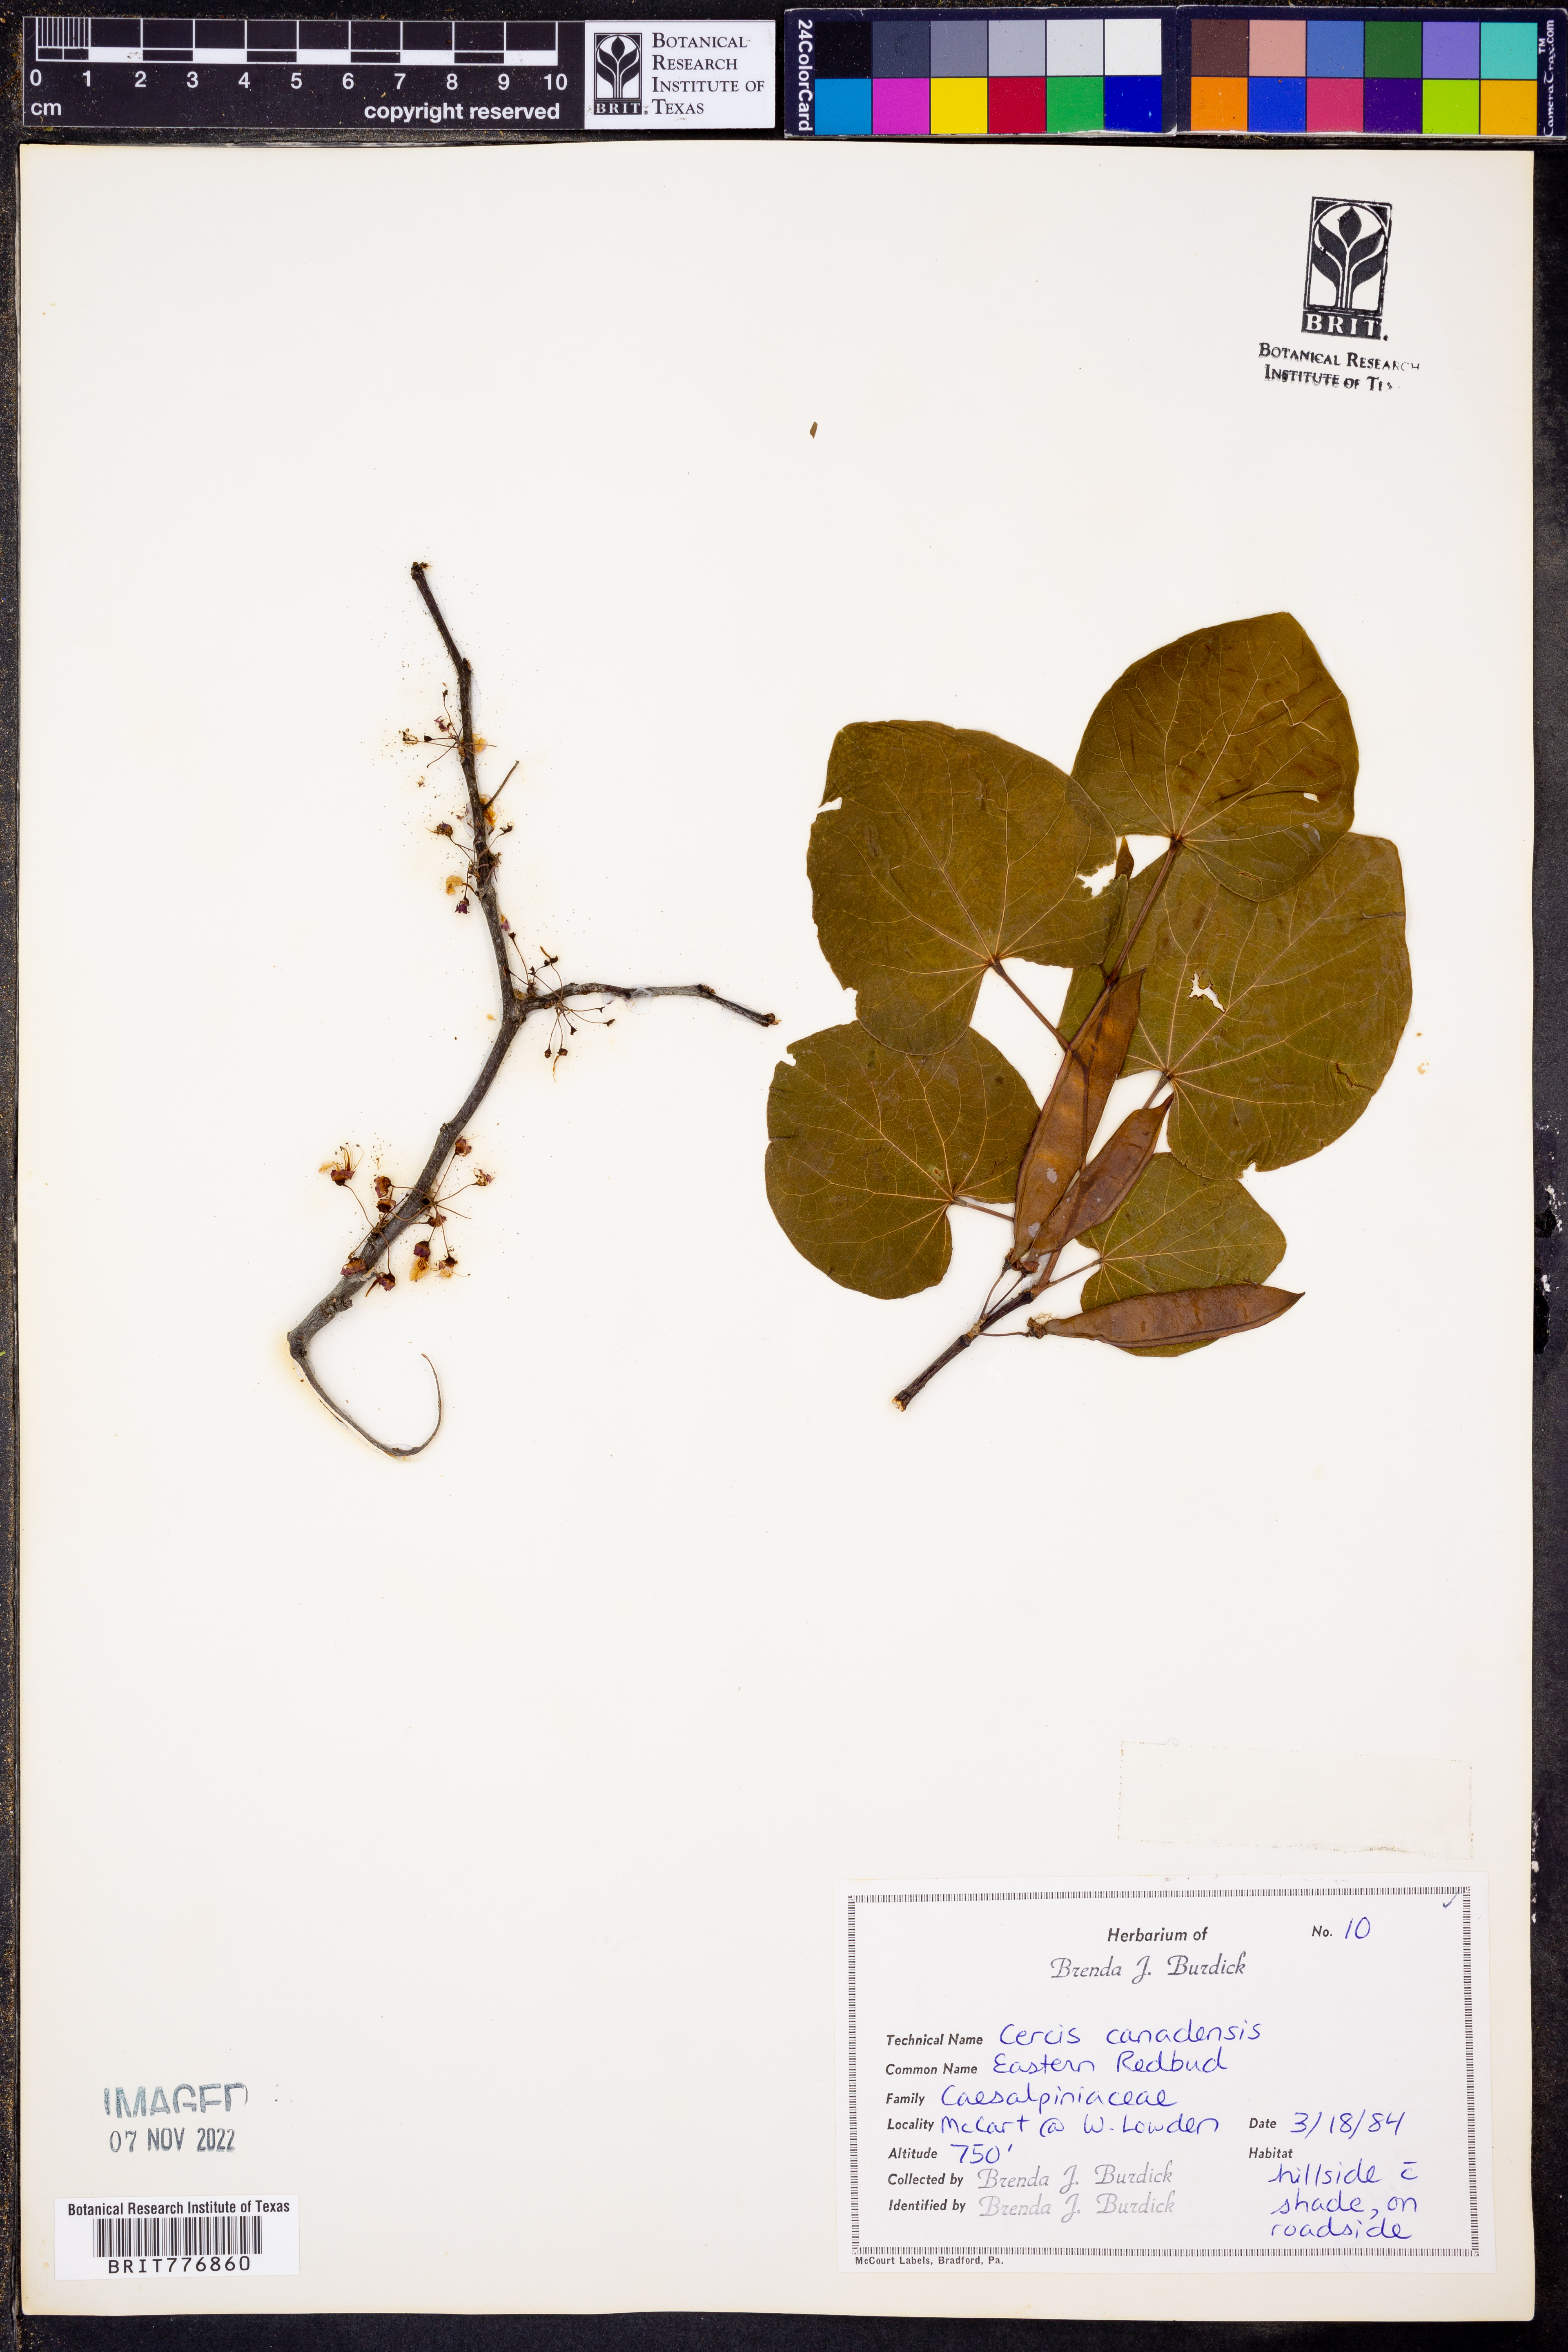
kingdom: Plantae
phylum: Tracheophyta
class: Magnoliopsida
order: Fabales
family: Fabaceae
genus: Cercis
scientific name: Cercis canadensis
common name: Eastern redbud
